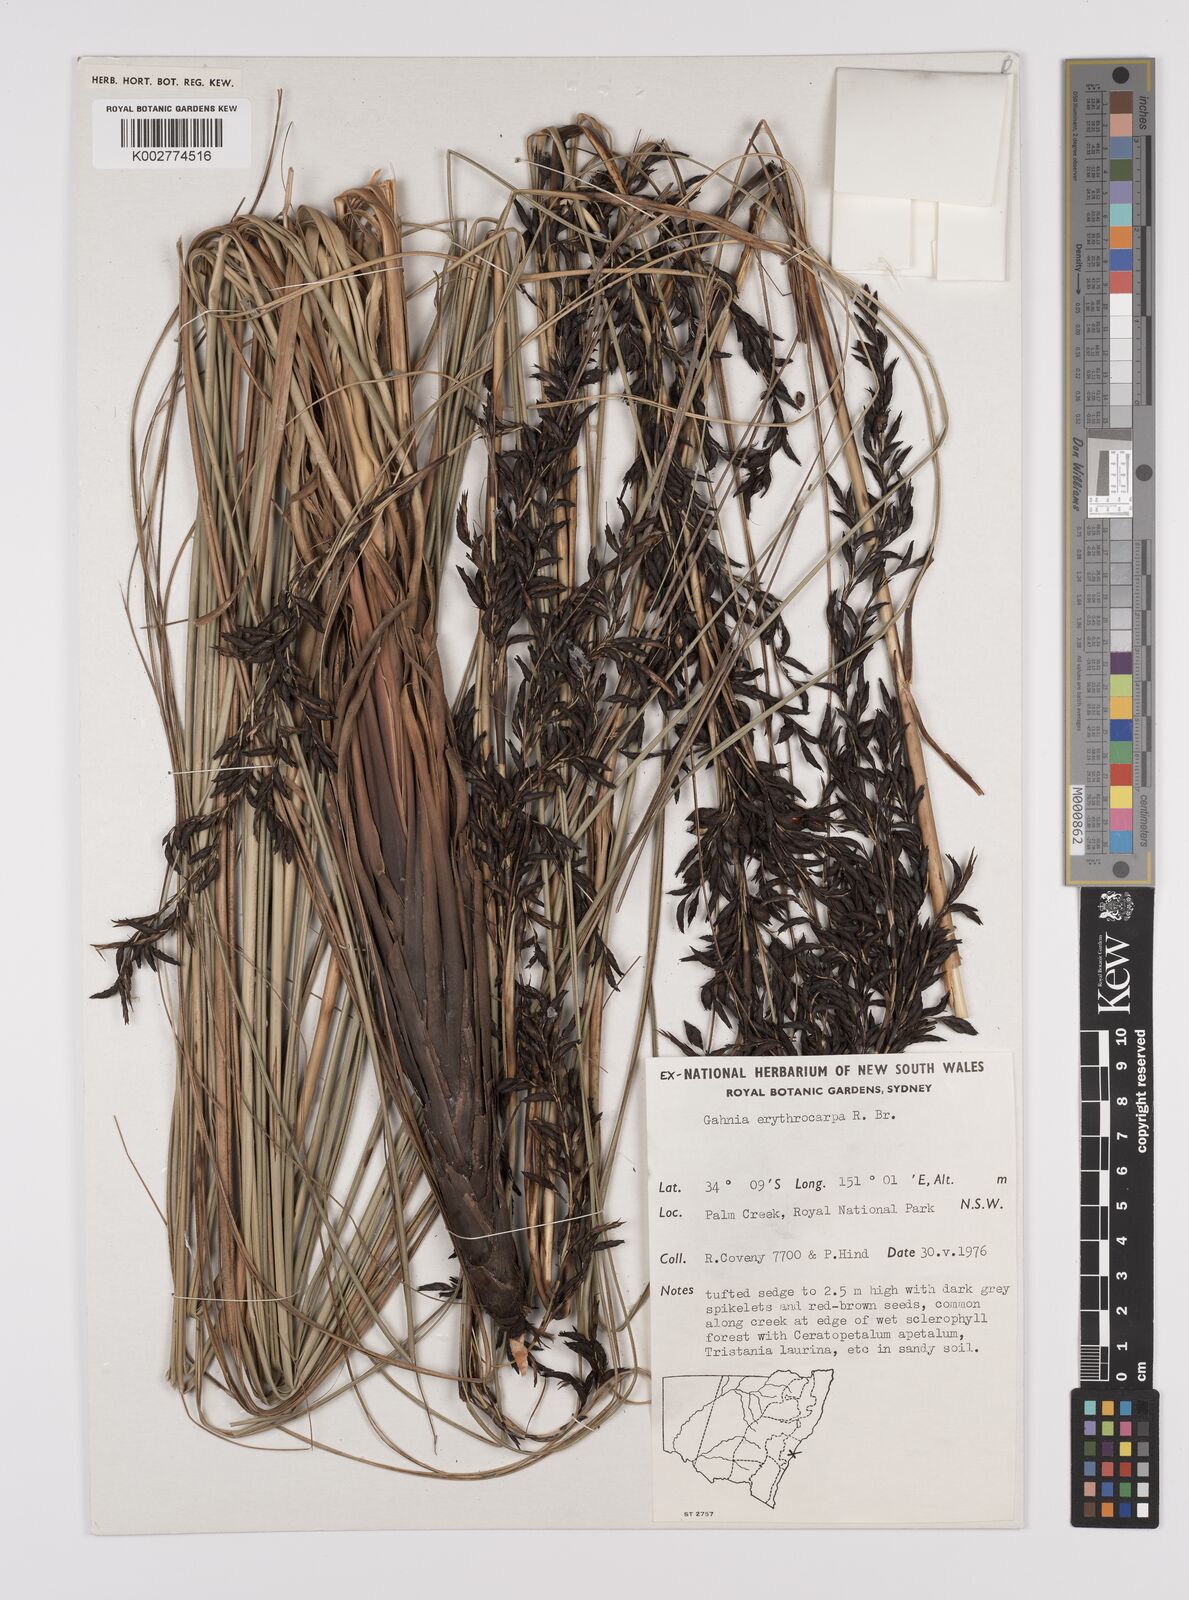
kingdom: Plantae
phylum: Tracheophyta
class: Liliopsida
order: Poales
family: Cyperaceae
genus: Gahnia
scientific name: Gahnia erythrocarpa
